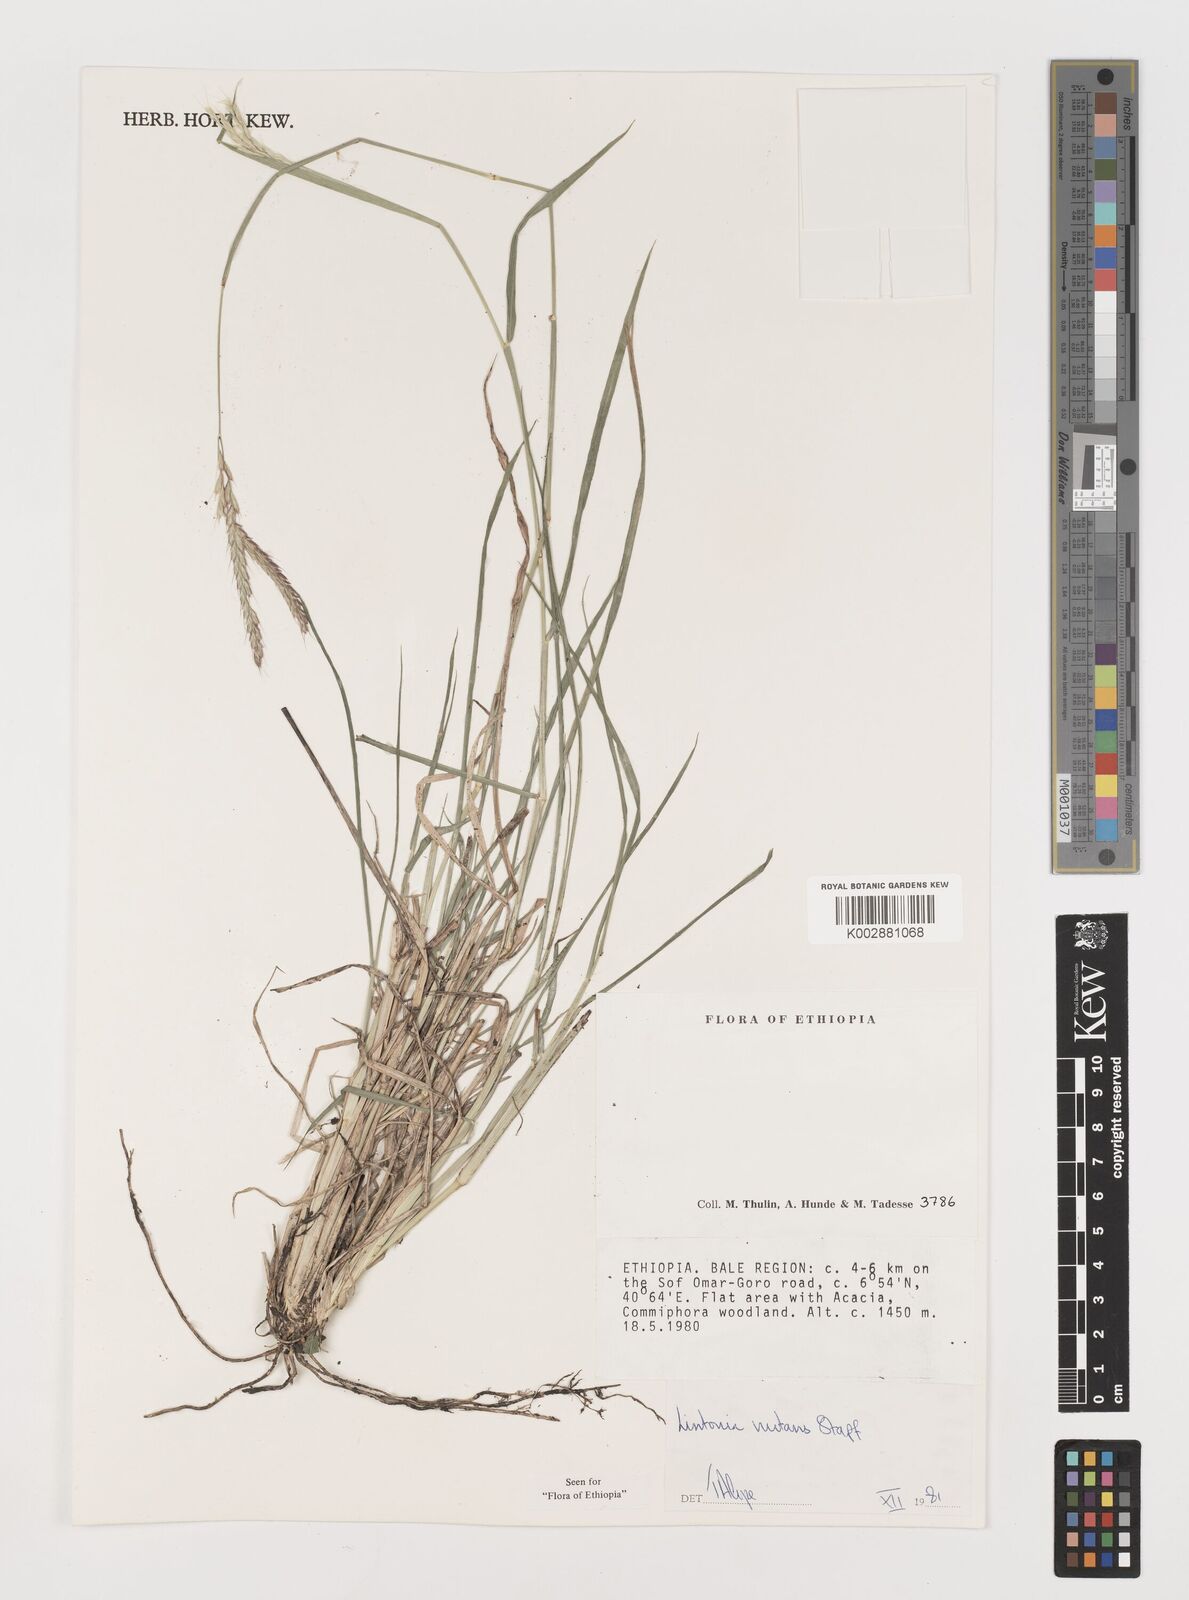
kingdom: Plantae
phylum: Tracheophyta
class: Liliopsida
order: Poales
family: Poaceae
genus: Chloris
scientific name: Chloris nutans
